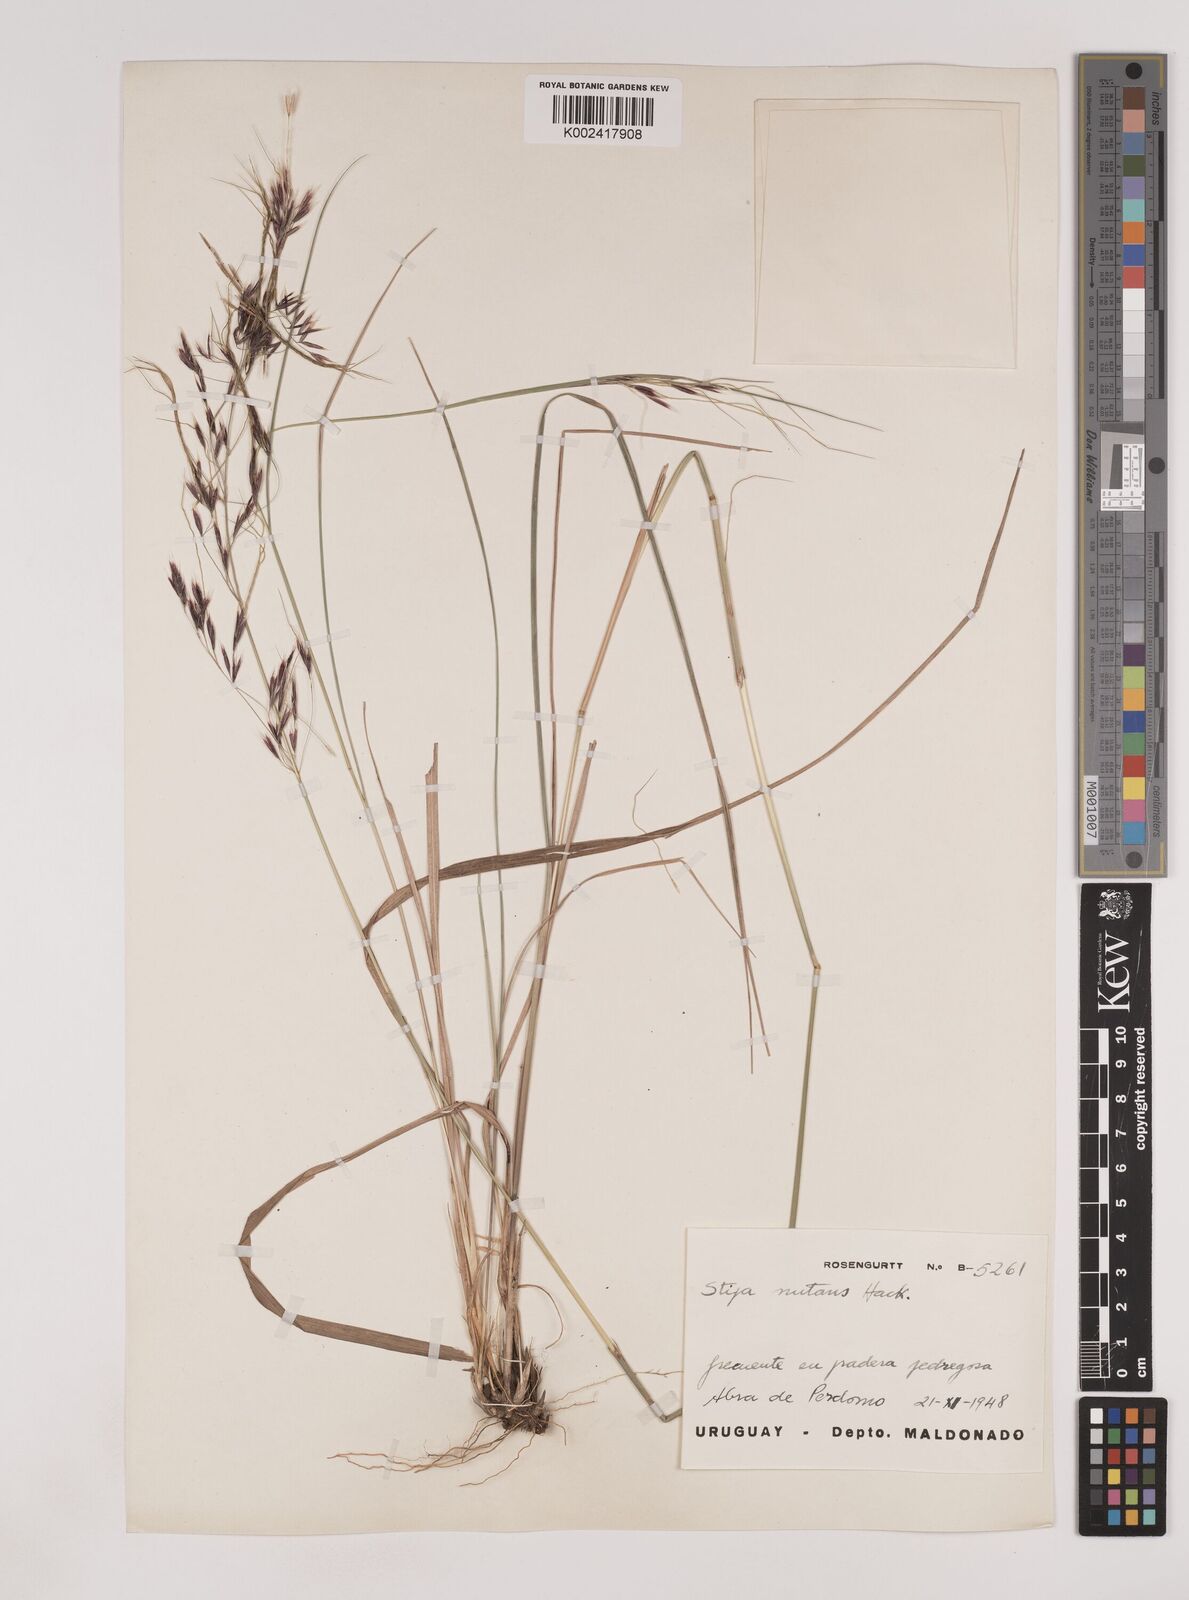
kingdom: Plantae
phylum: Tracheophyta
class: Liliopsida
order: Poales
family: Poaceae
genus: Nassella
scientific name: Nassella nutans
